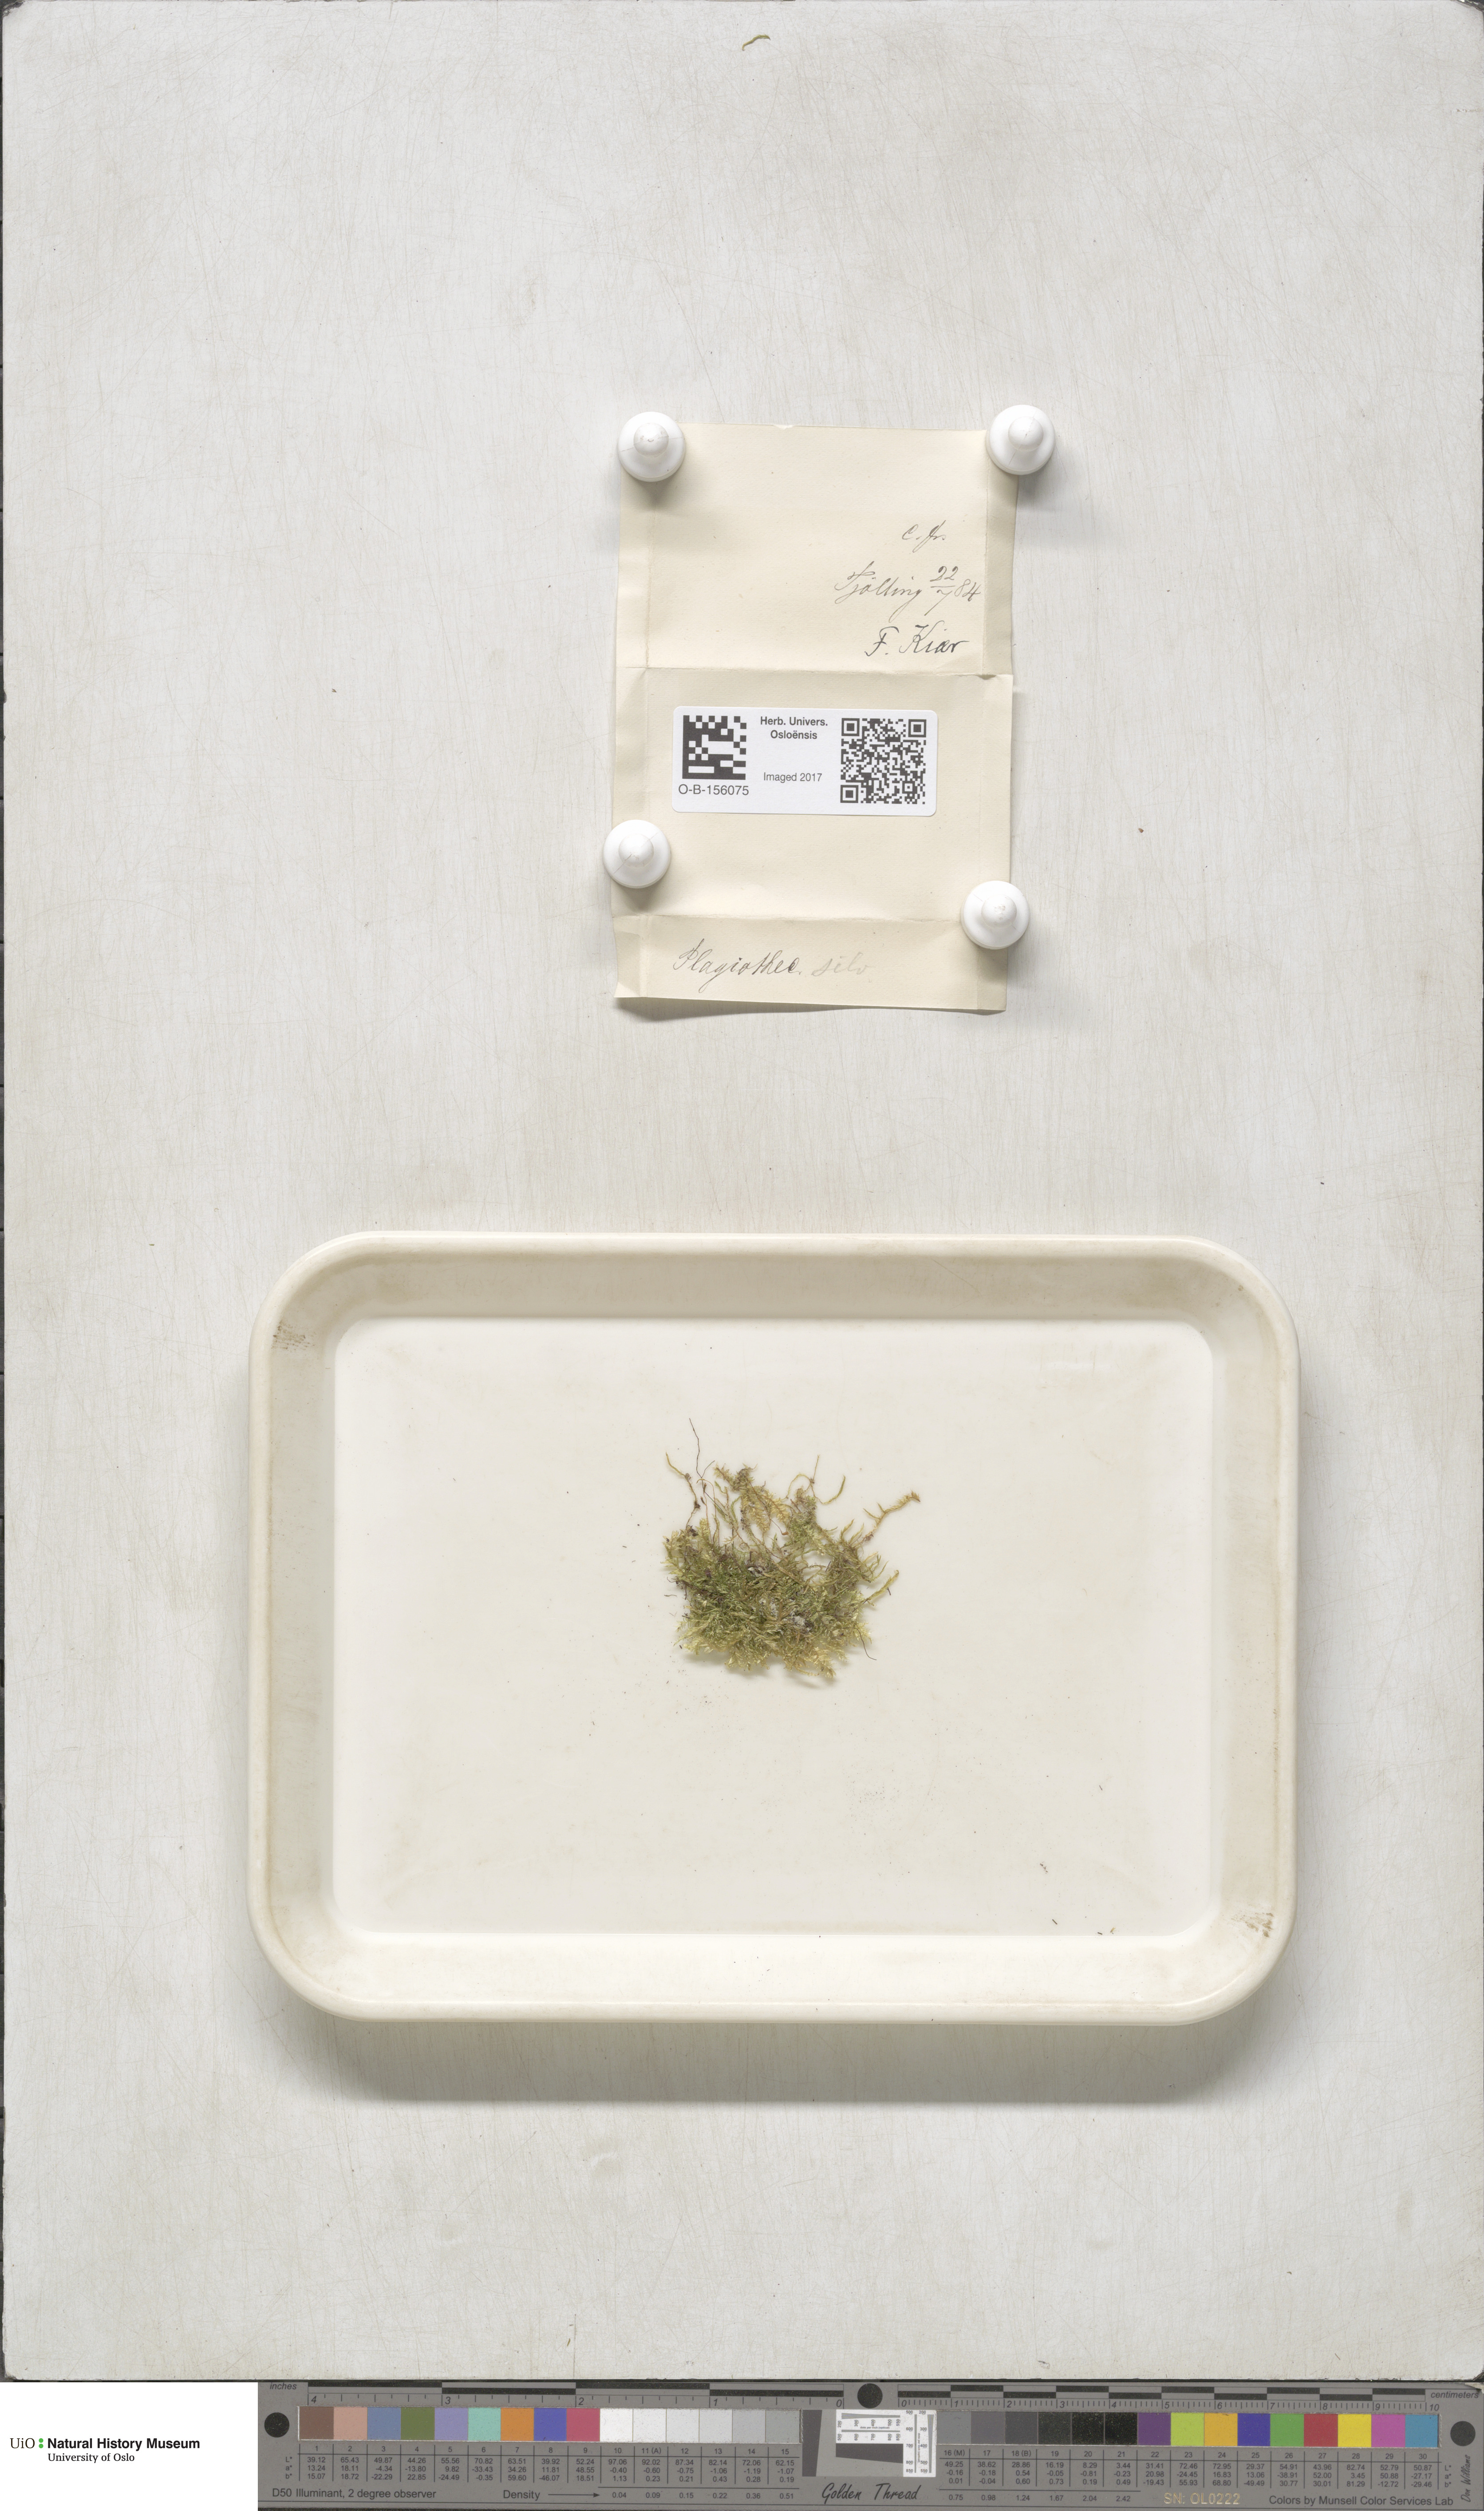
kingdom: Plantae
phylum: Bryophyta
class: Bryopsida
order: Hypnales
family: Plagiotheciaceae
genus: Plagiothecium
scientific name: Plagiothecium nemorale
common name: Woodsy silk-moss
